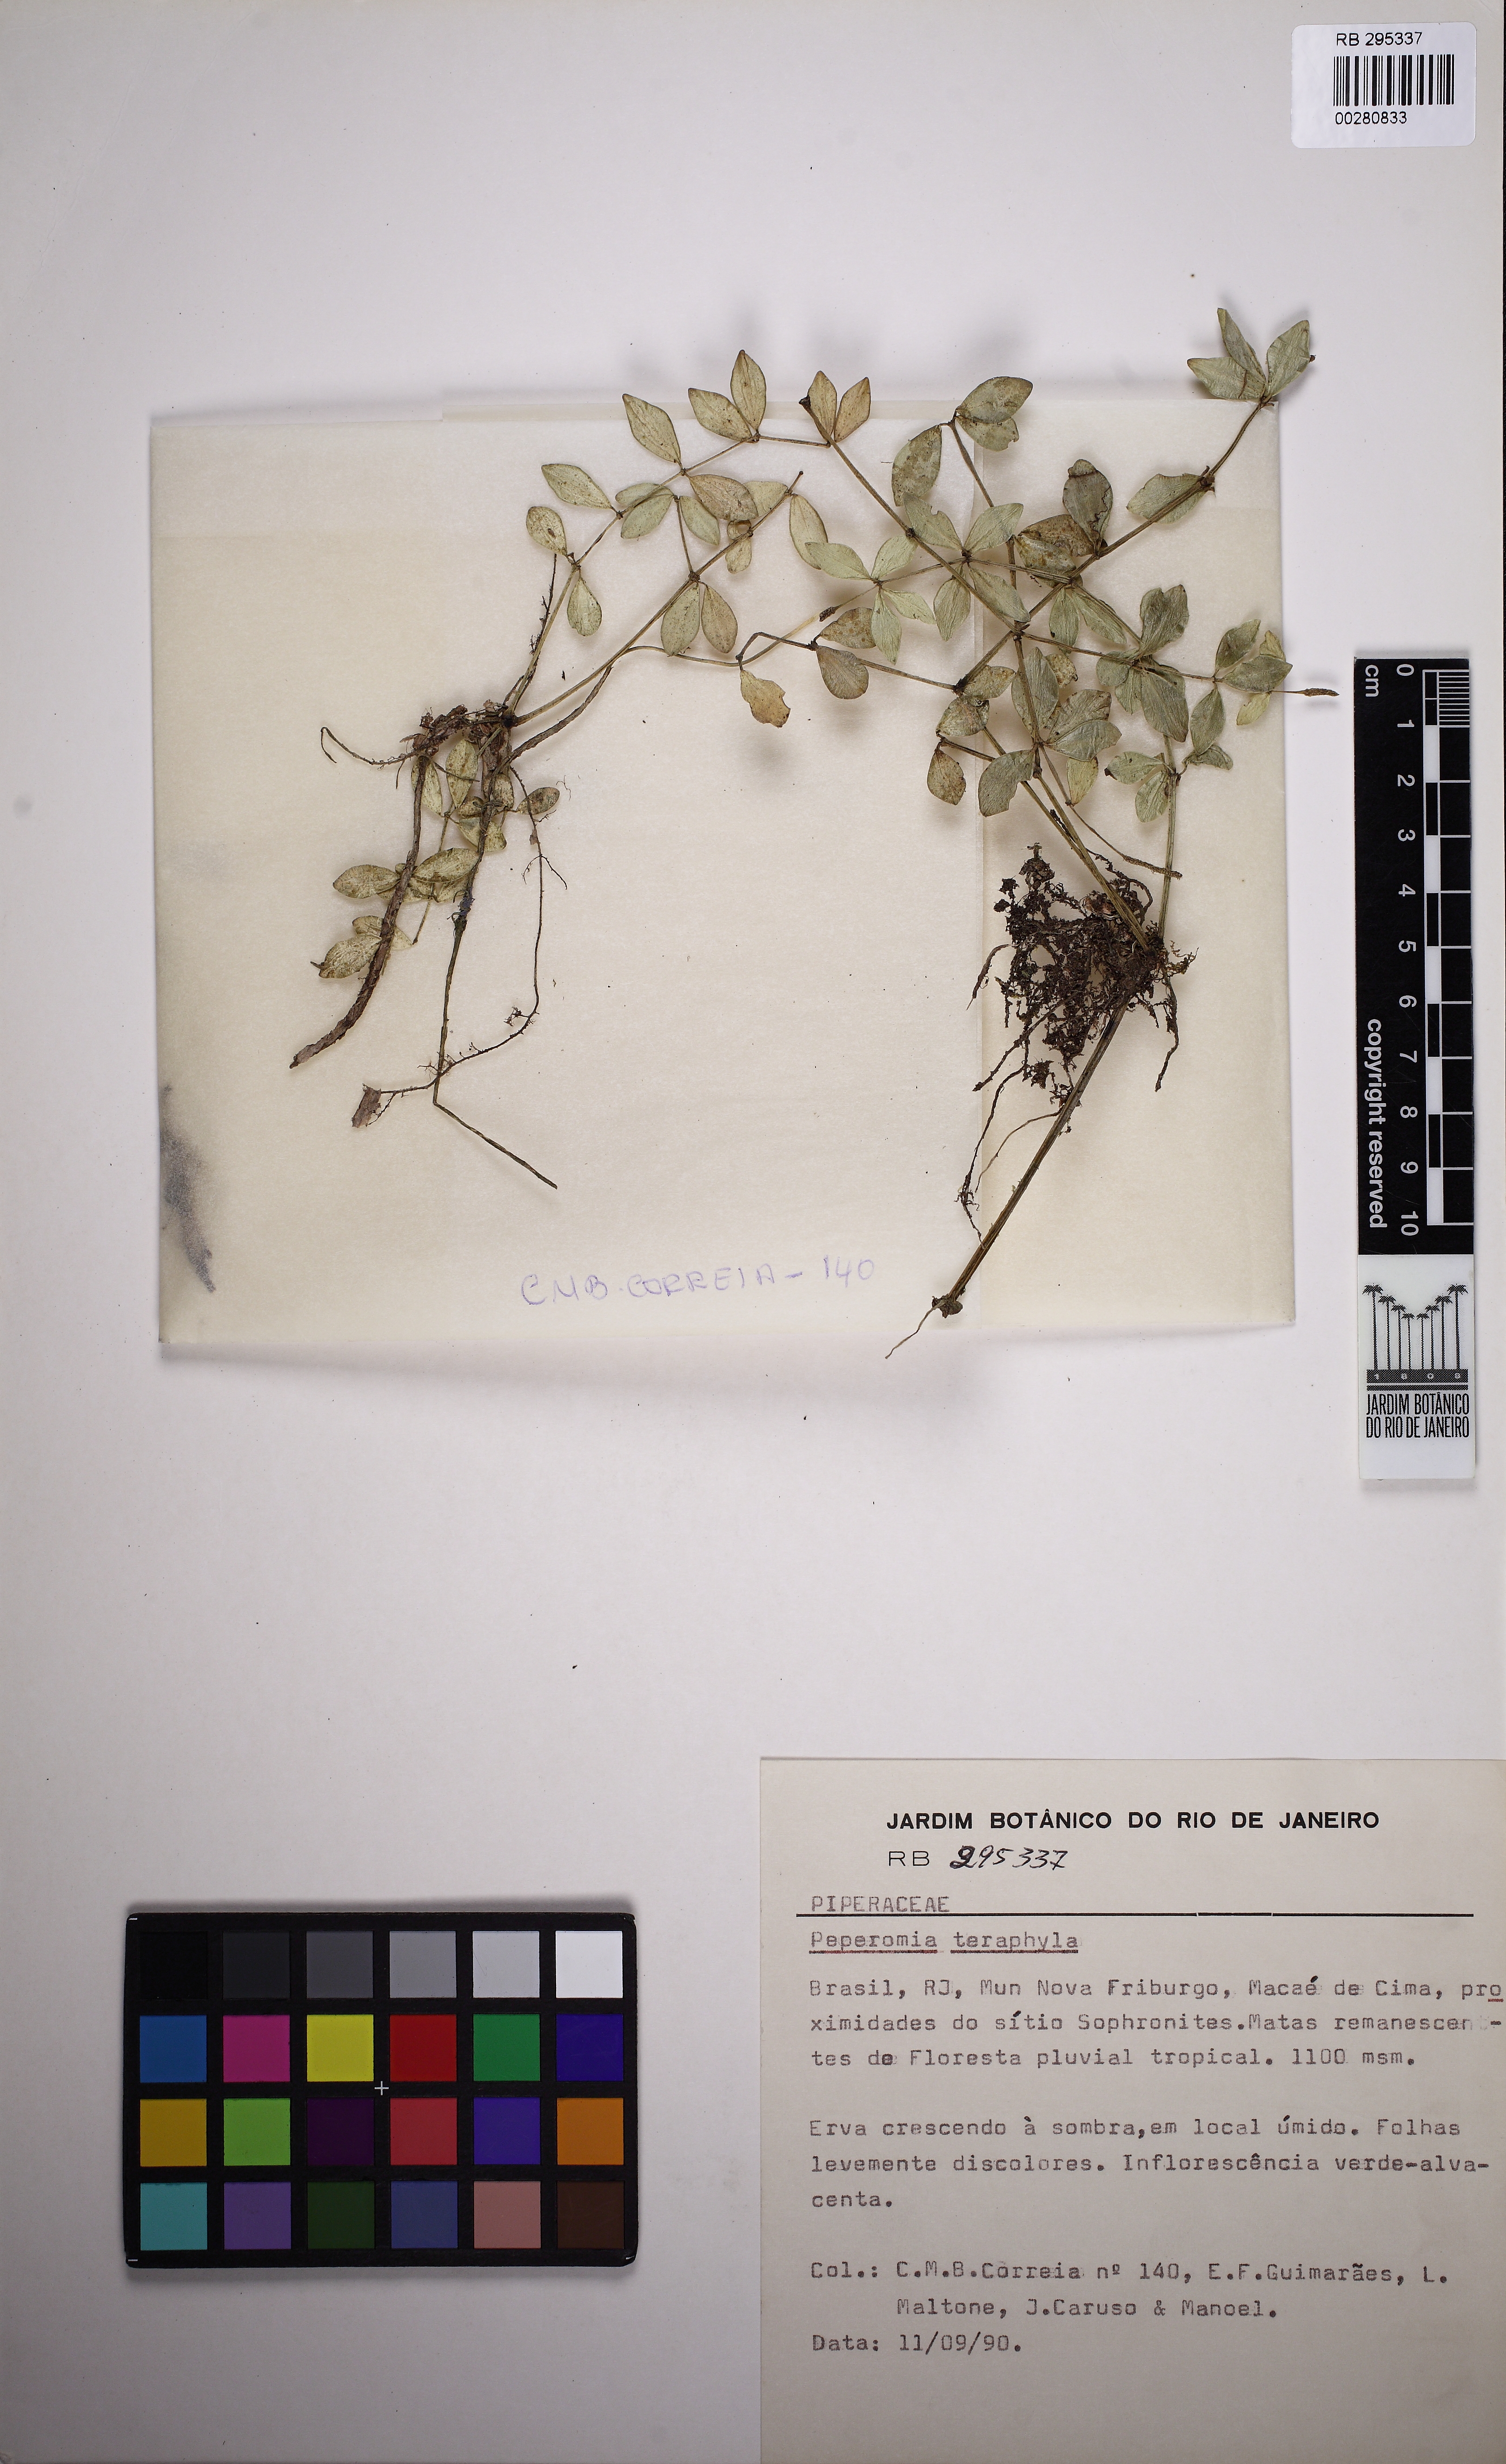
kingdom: Plantae
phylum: Tracheophyta
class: Magnoliopsida
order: Piperales
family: Piperaceae
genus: Peperomia
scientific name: Peperomia tetraphylla
